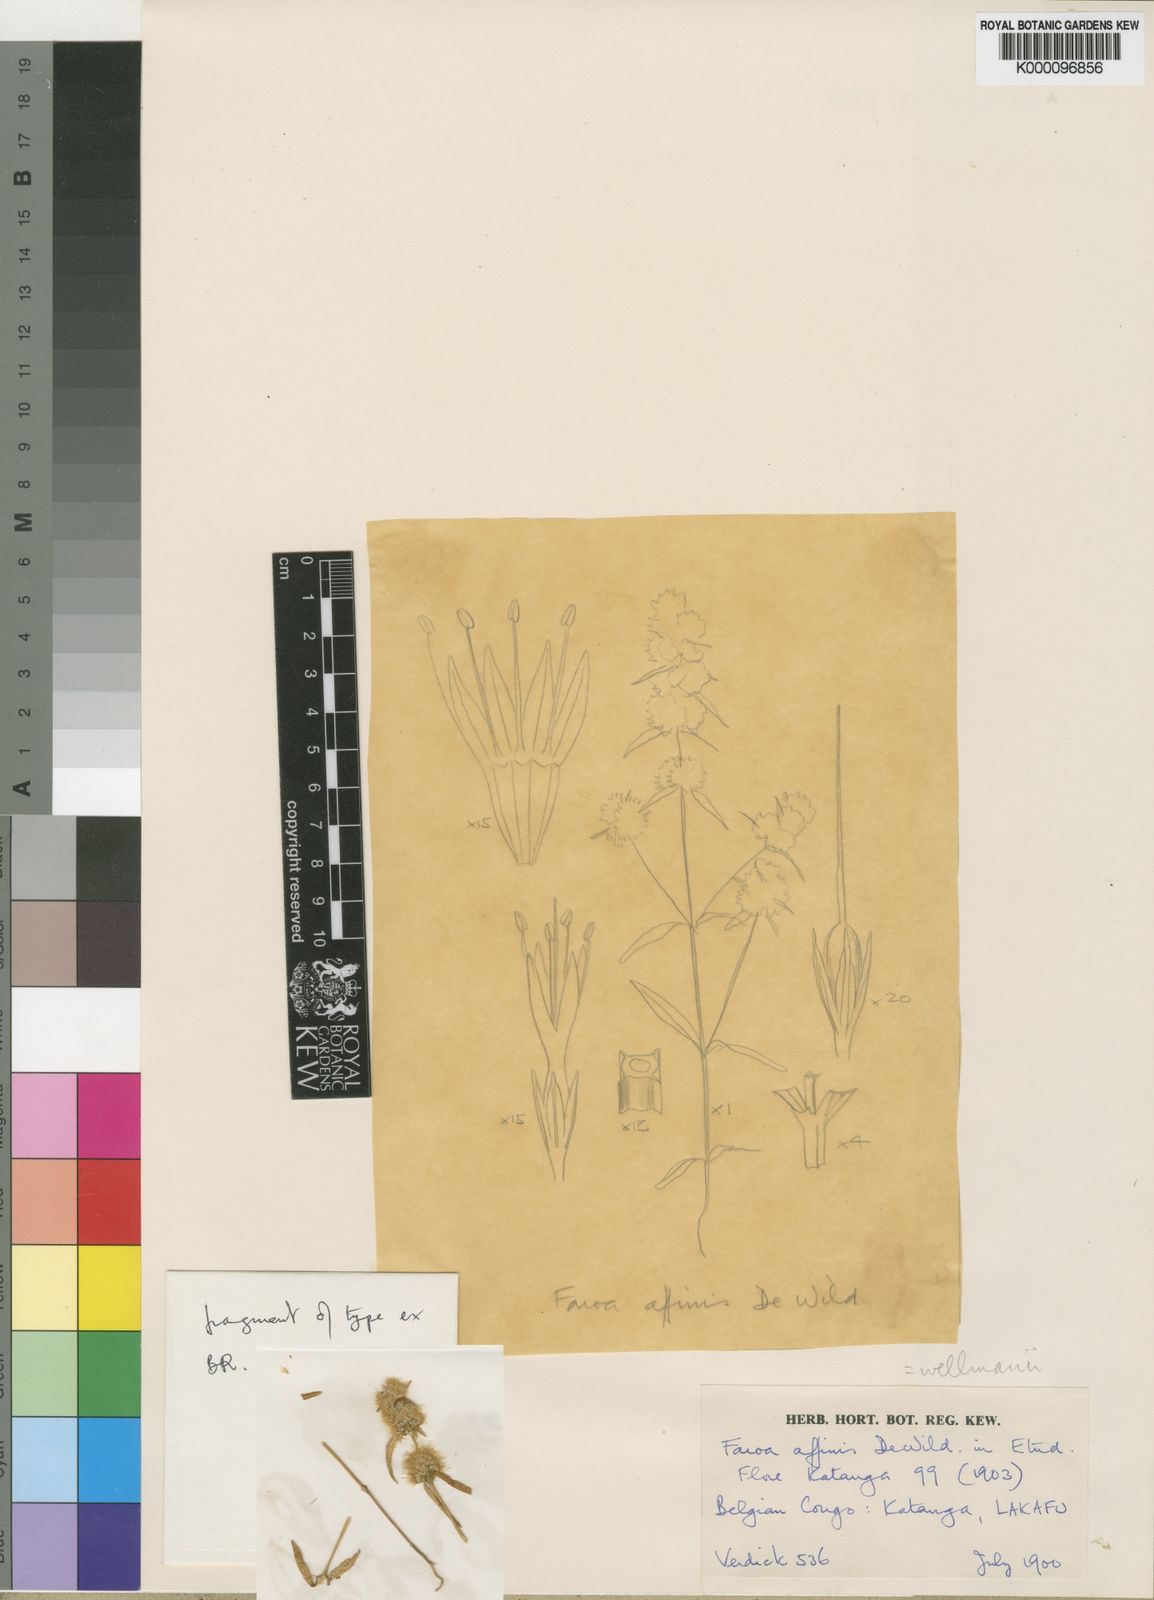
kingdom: Plantae
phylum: Tracheophyta
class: Magnoliopsida
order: Gentianales
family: Gentianaceae
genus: Faroa
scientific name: Faroa affinis
